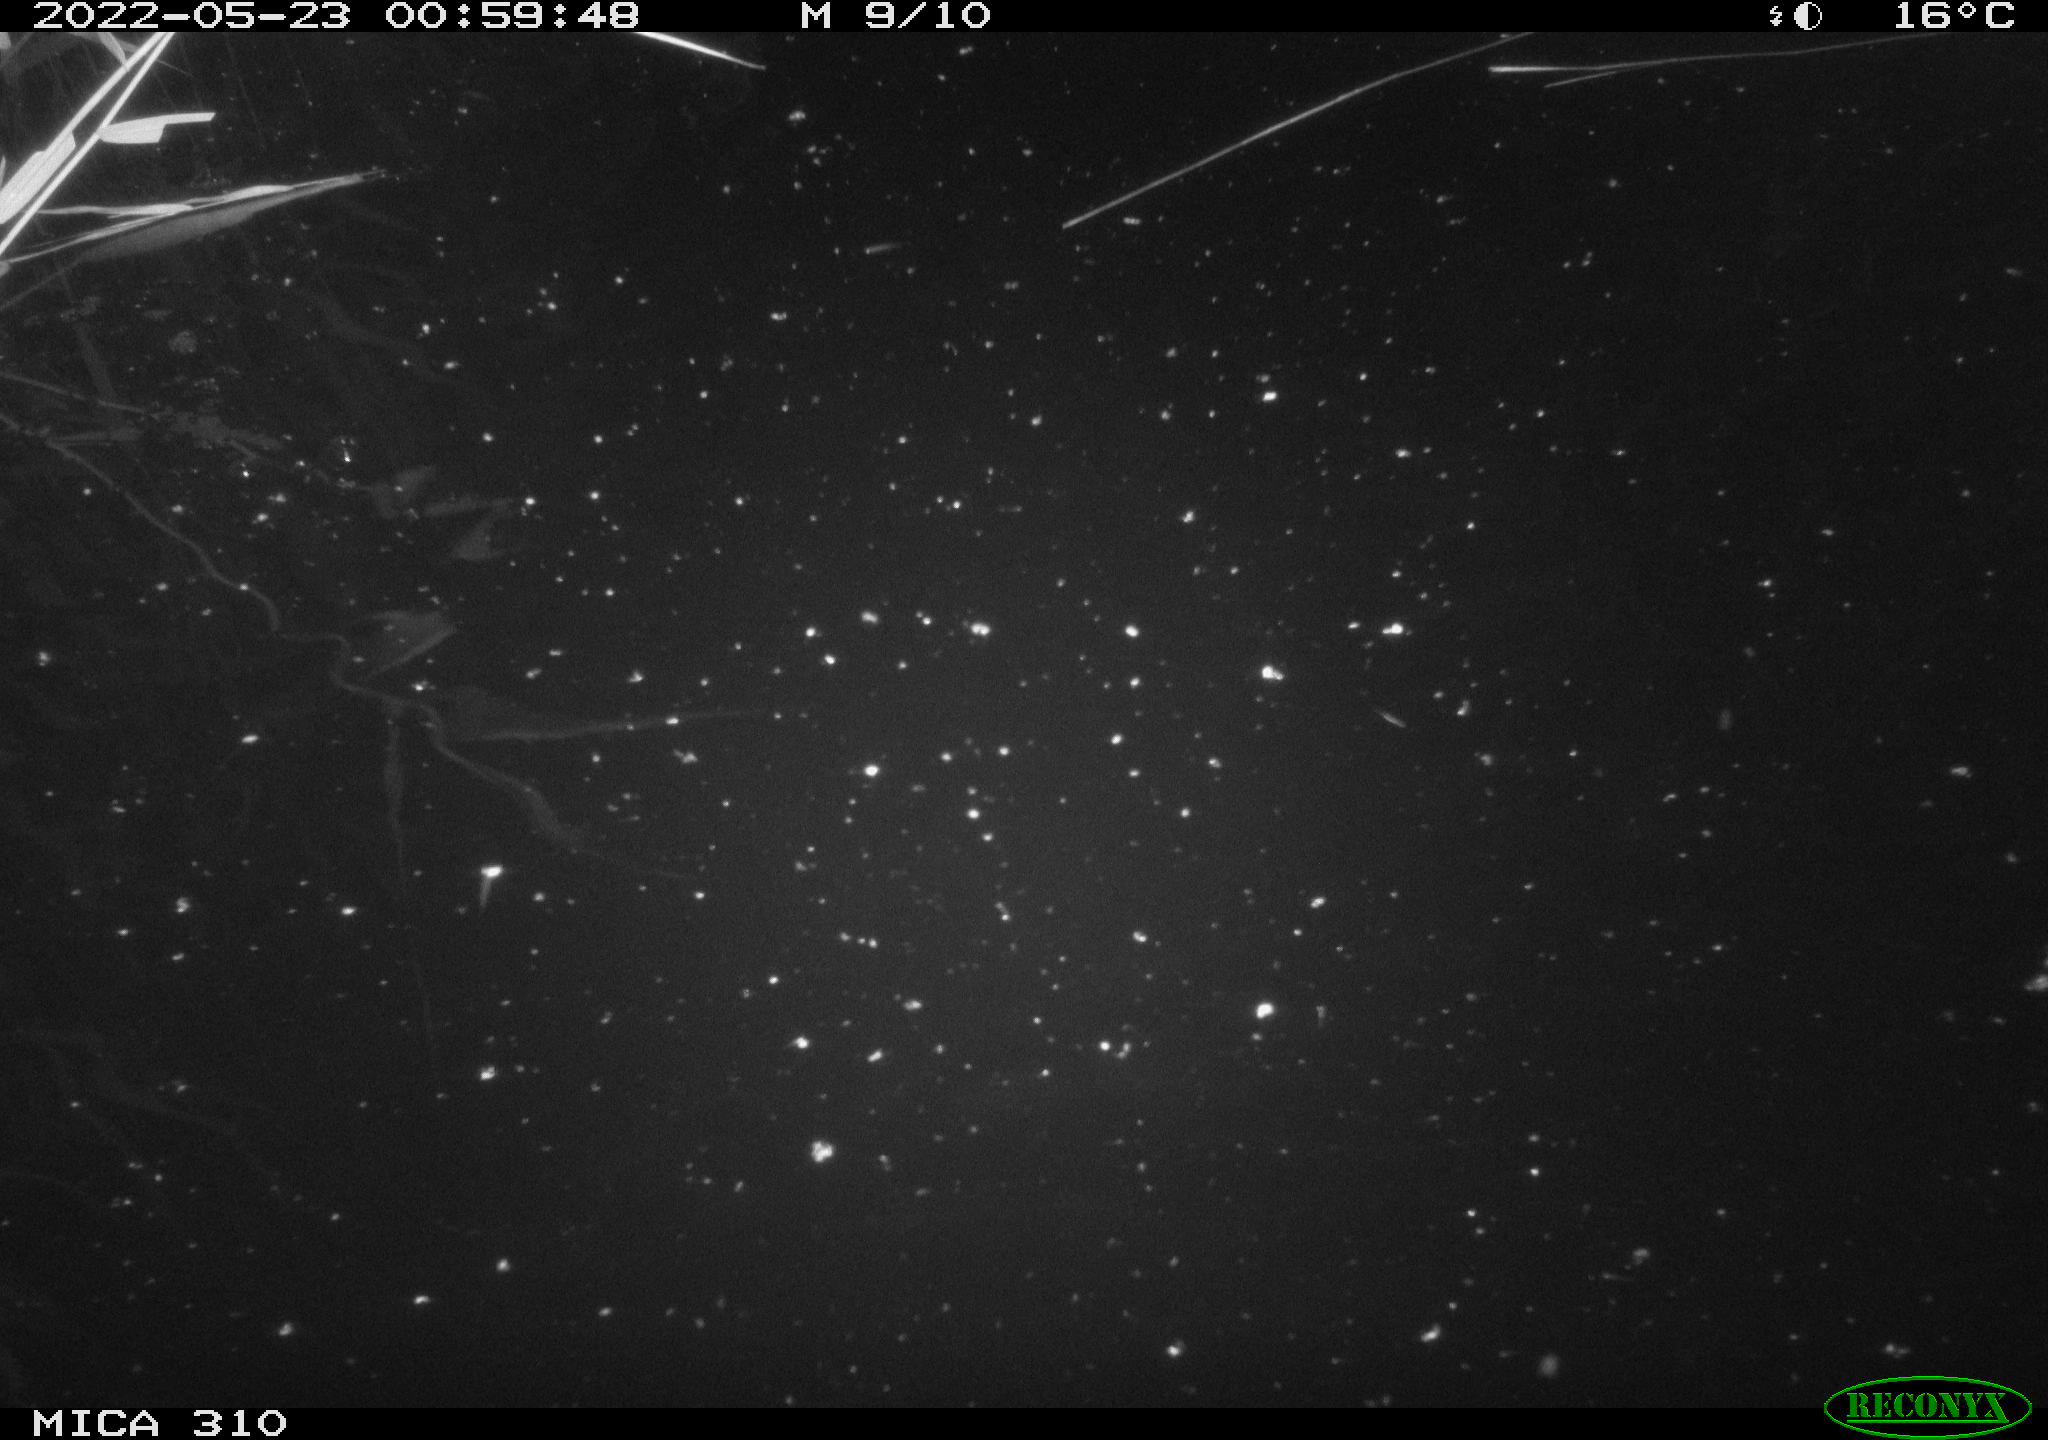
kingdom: Animalia
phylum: Chordata
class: Aves
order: Anseriformes
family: Anatidae
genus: Anas
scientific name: Anas platyrhynchos
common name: Mallard
